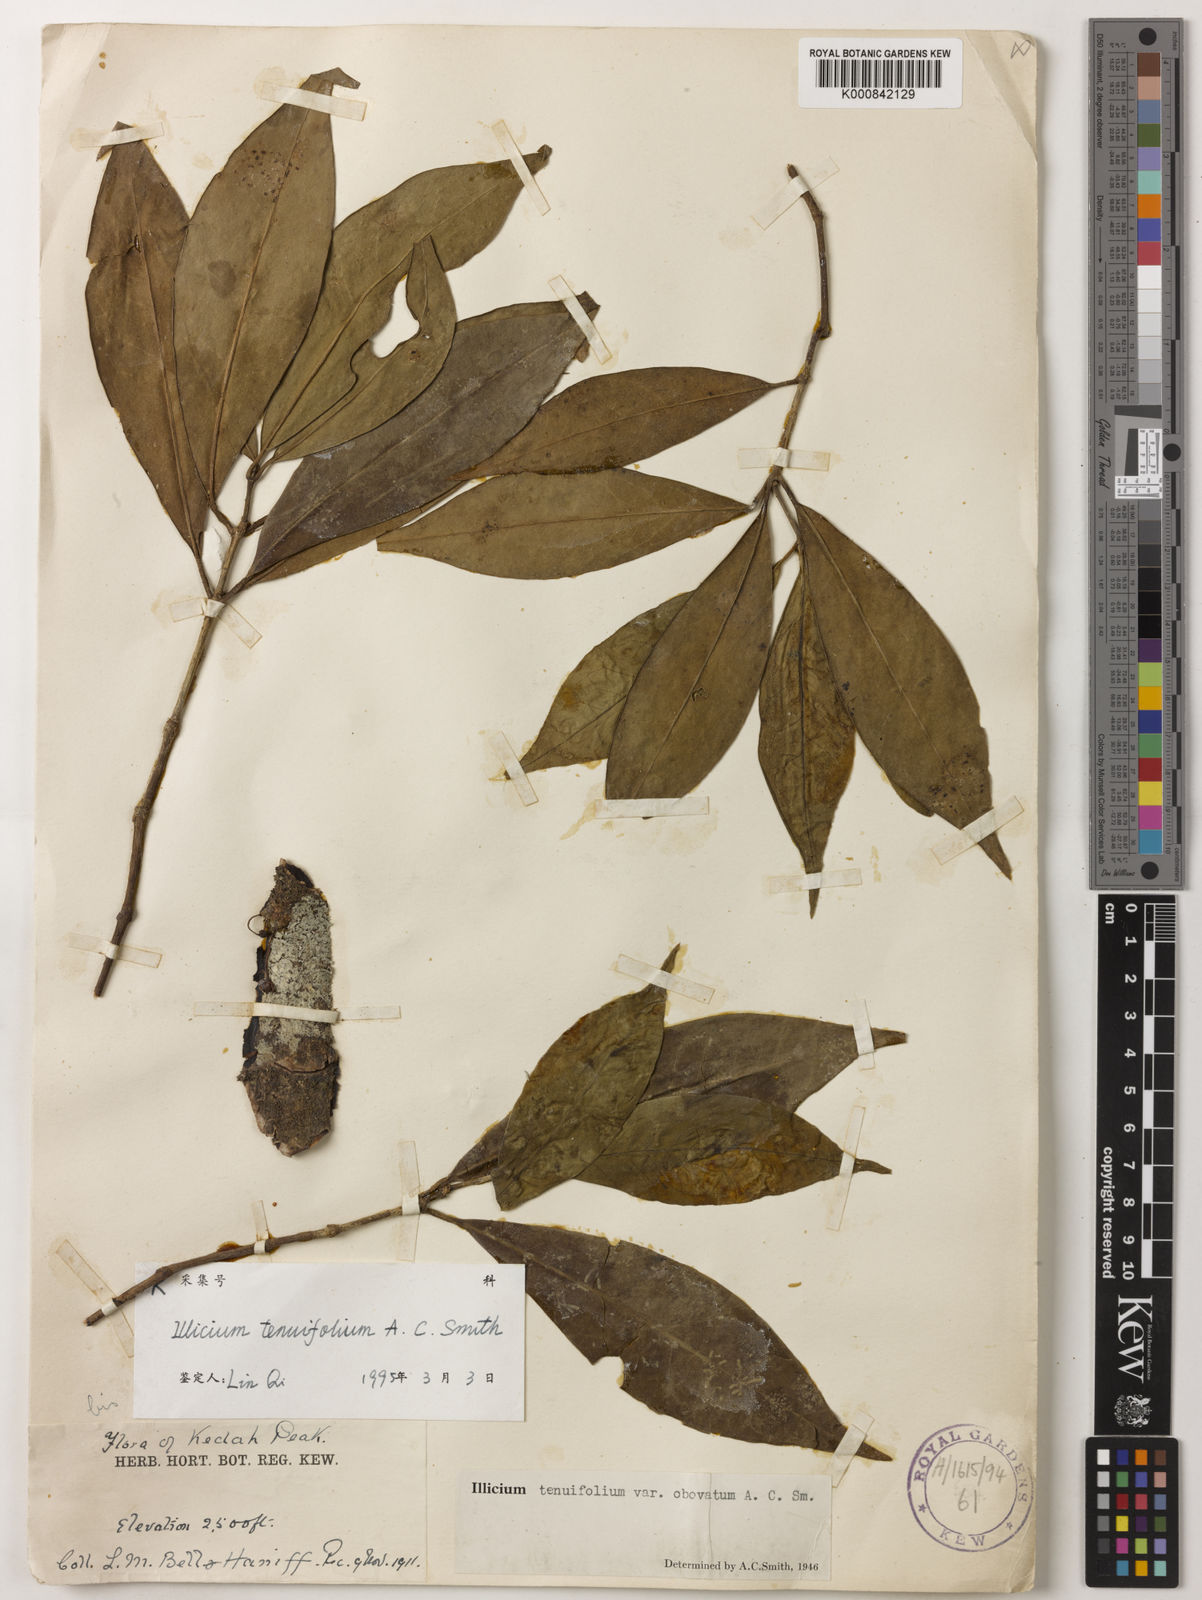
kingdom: Plantae
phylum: Tracheophyta
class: Magnoliopsida
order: Austrobaileyales
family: Schisandraceae
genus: Illicium
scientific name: Illicium tenuifolium
